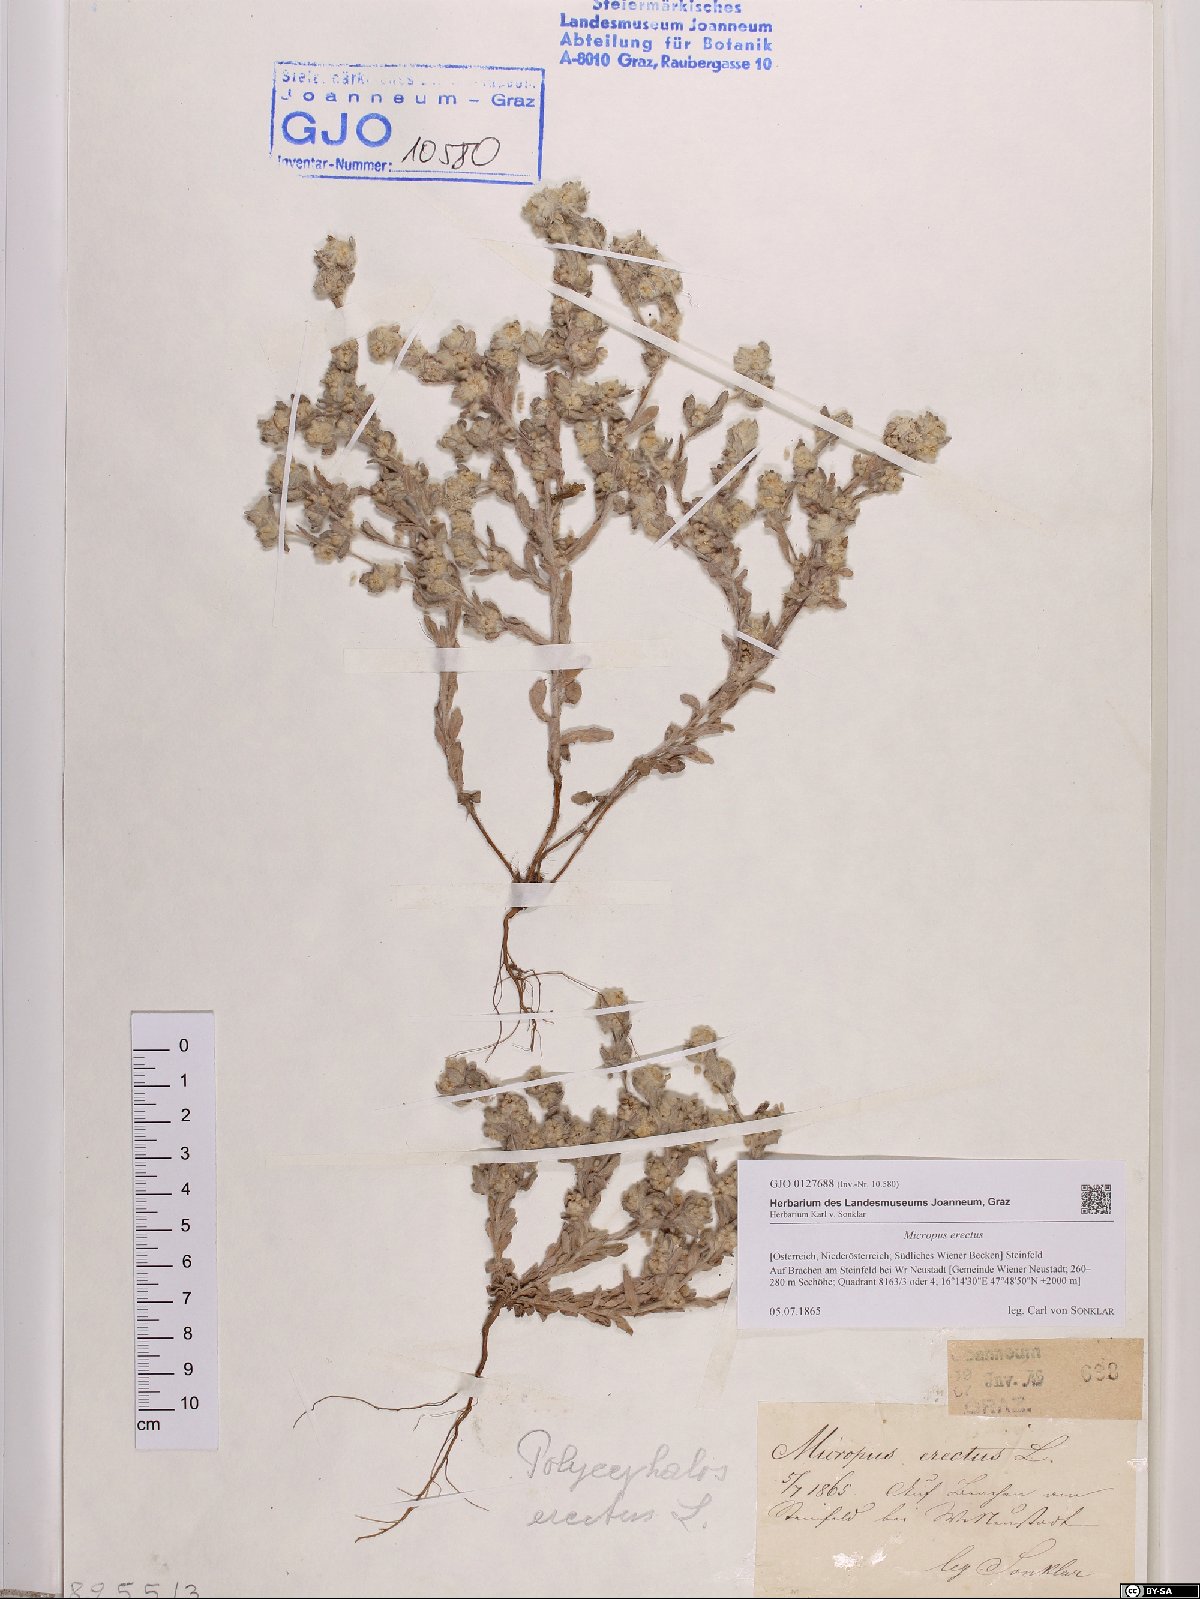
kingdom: Plantae
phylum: Tracheophyta
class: Magnoliopsida
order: Asterales
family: Asteraceae
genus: Bombycilaena
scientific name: Bombycilaena erecta
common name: Micropus
